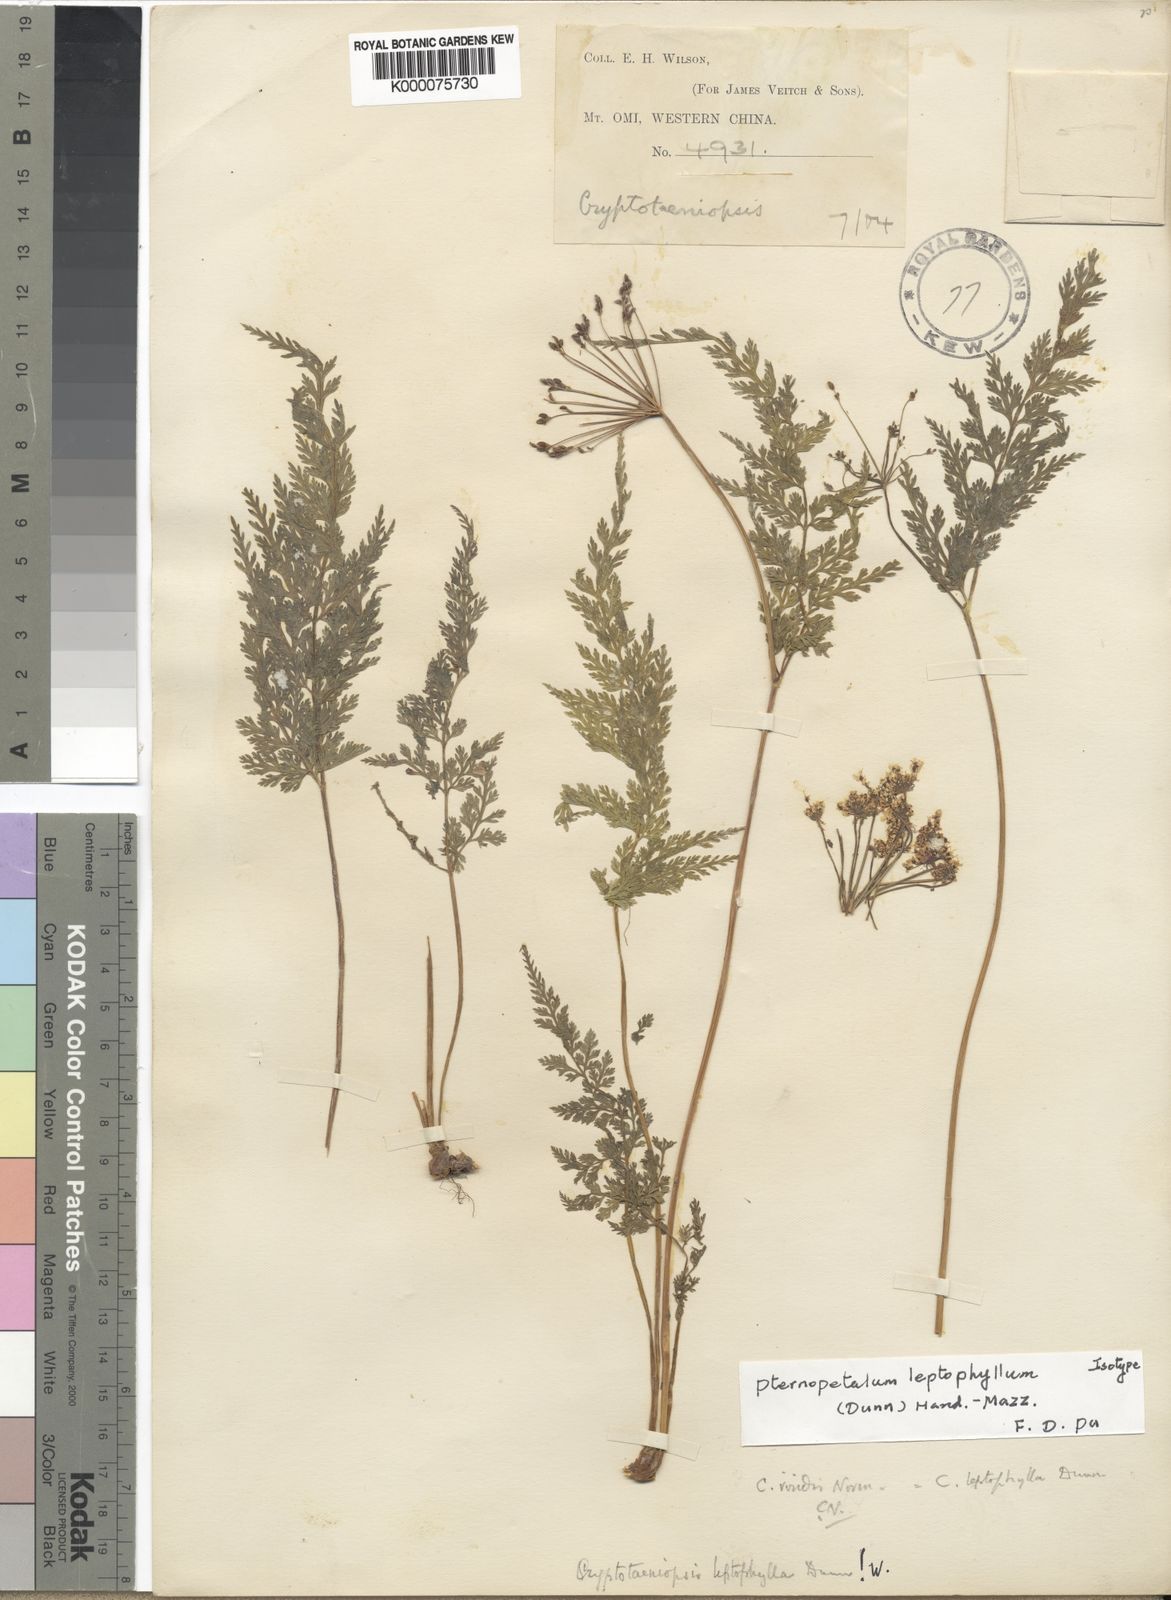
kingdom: Plantae
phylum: Tracheophyta
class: Magnoliopsida
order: Apiales
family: Apiaceae
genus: Pternopetalum
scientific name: Pternopetalum leptophyllum
